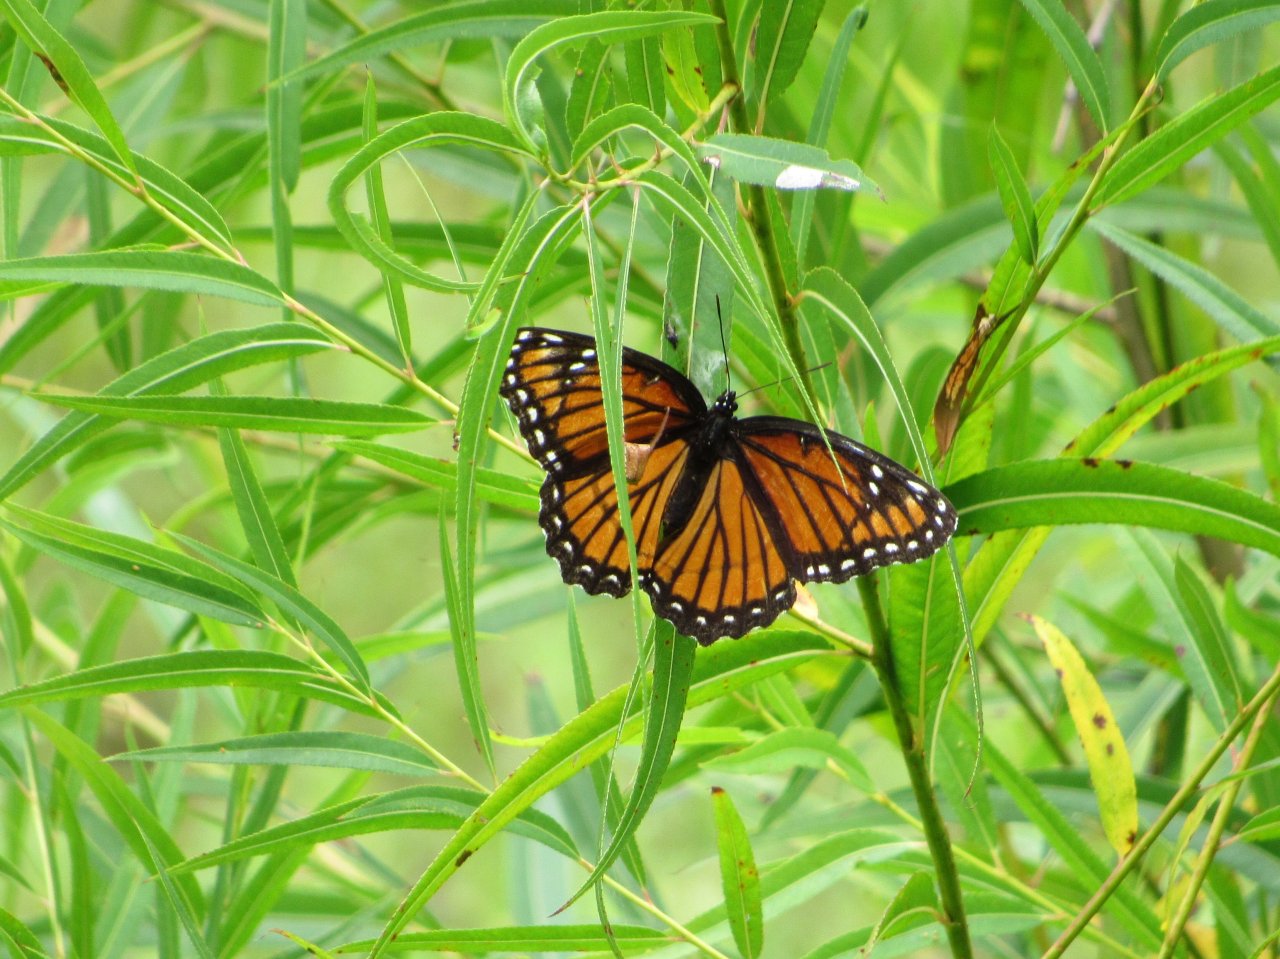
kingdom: Animalia
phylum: Arthropoda
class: Insecta
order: Lepidoptera
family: Nymphalidae
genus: Limenitis
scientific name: Limenitis archippus
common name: Viceroy
